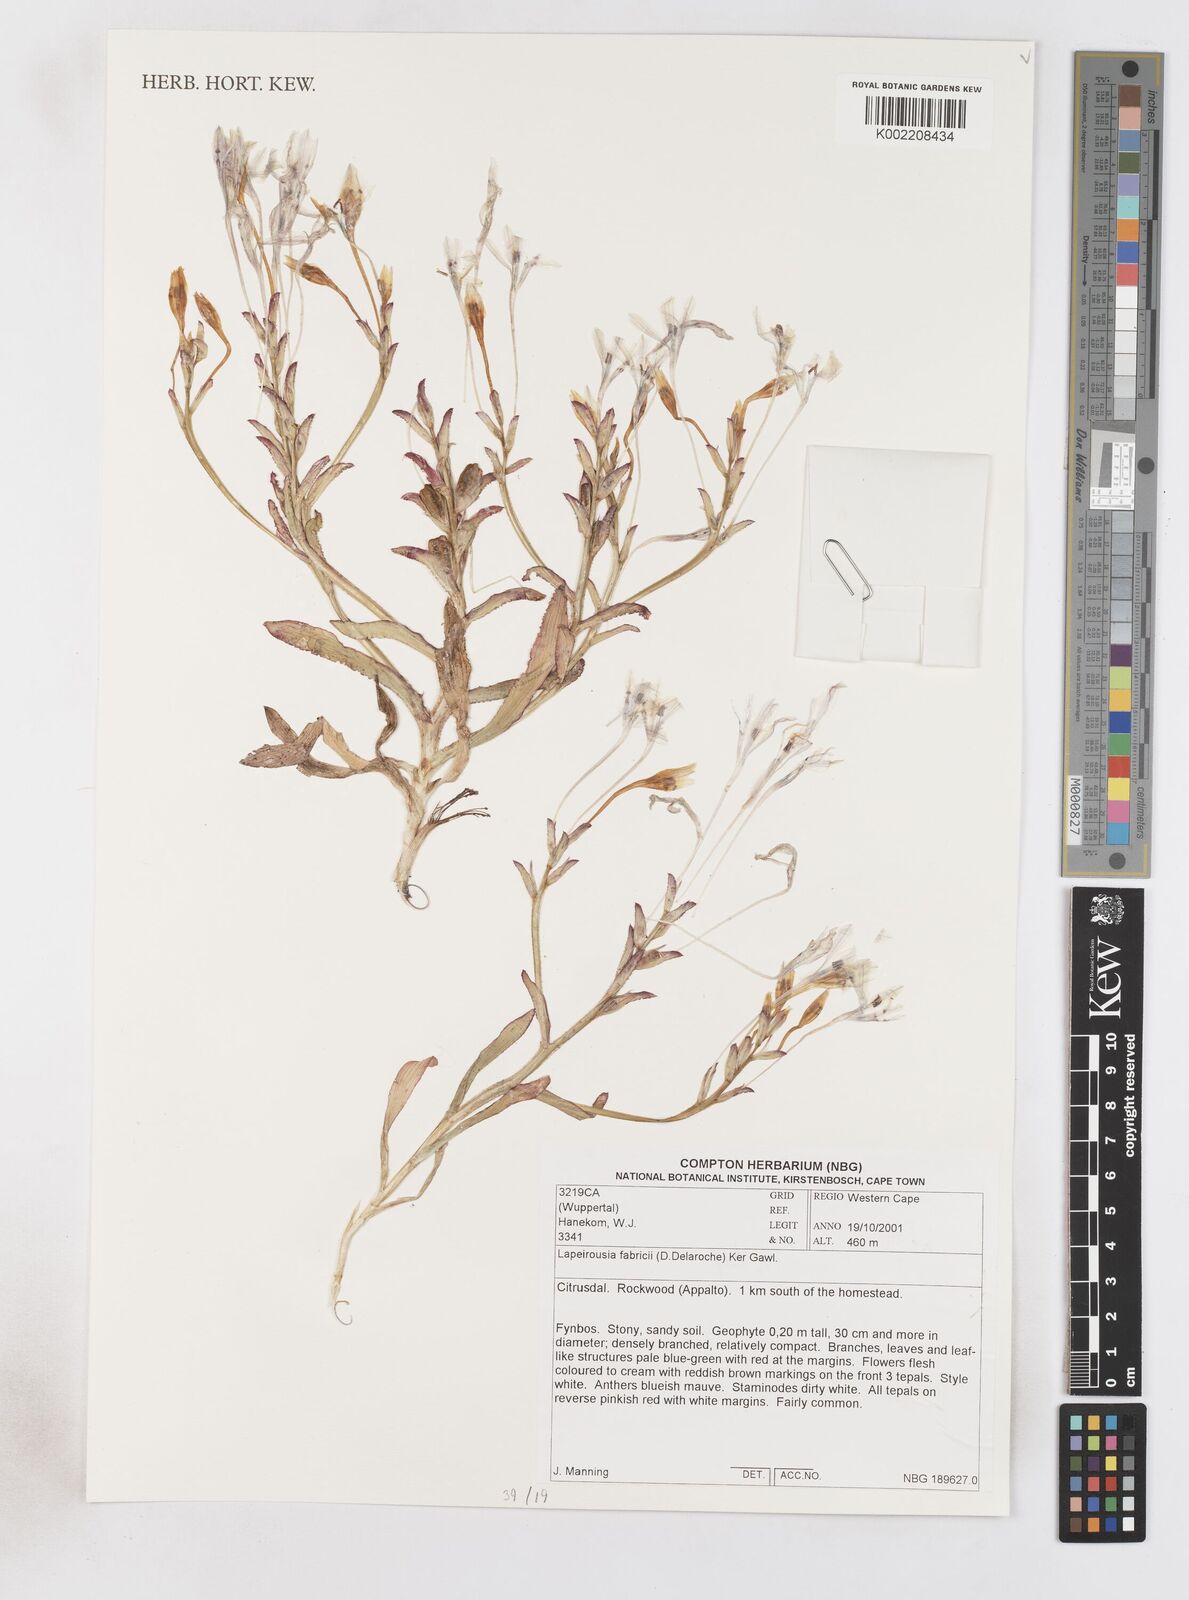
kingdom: Plantae
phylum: Tracheophyta
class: Liliopsida
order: Asparagales
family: Iridaceae
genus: Lapeirousia
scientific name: Lapeirousia fabricii
